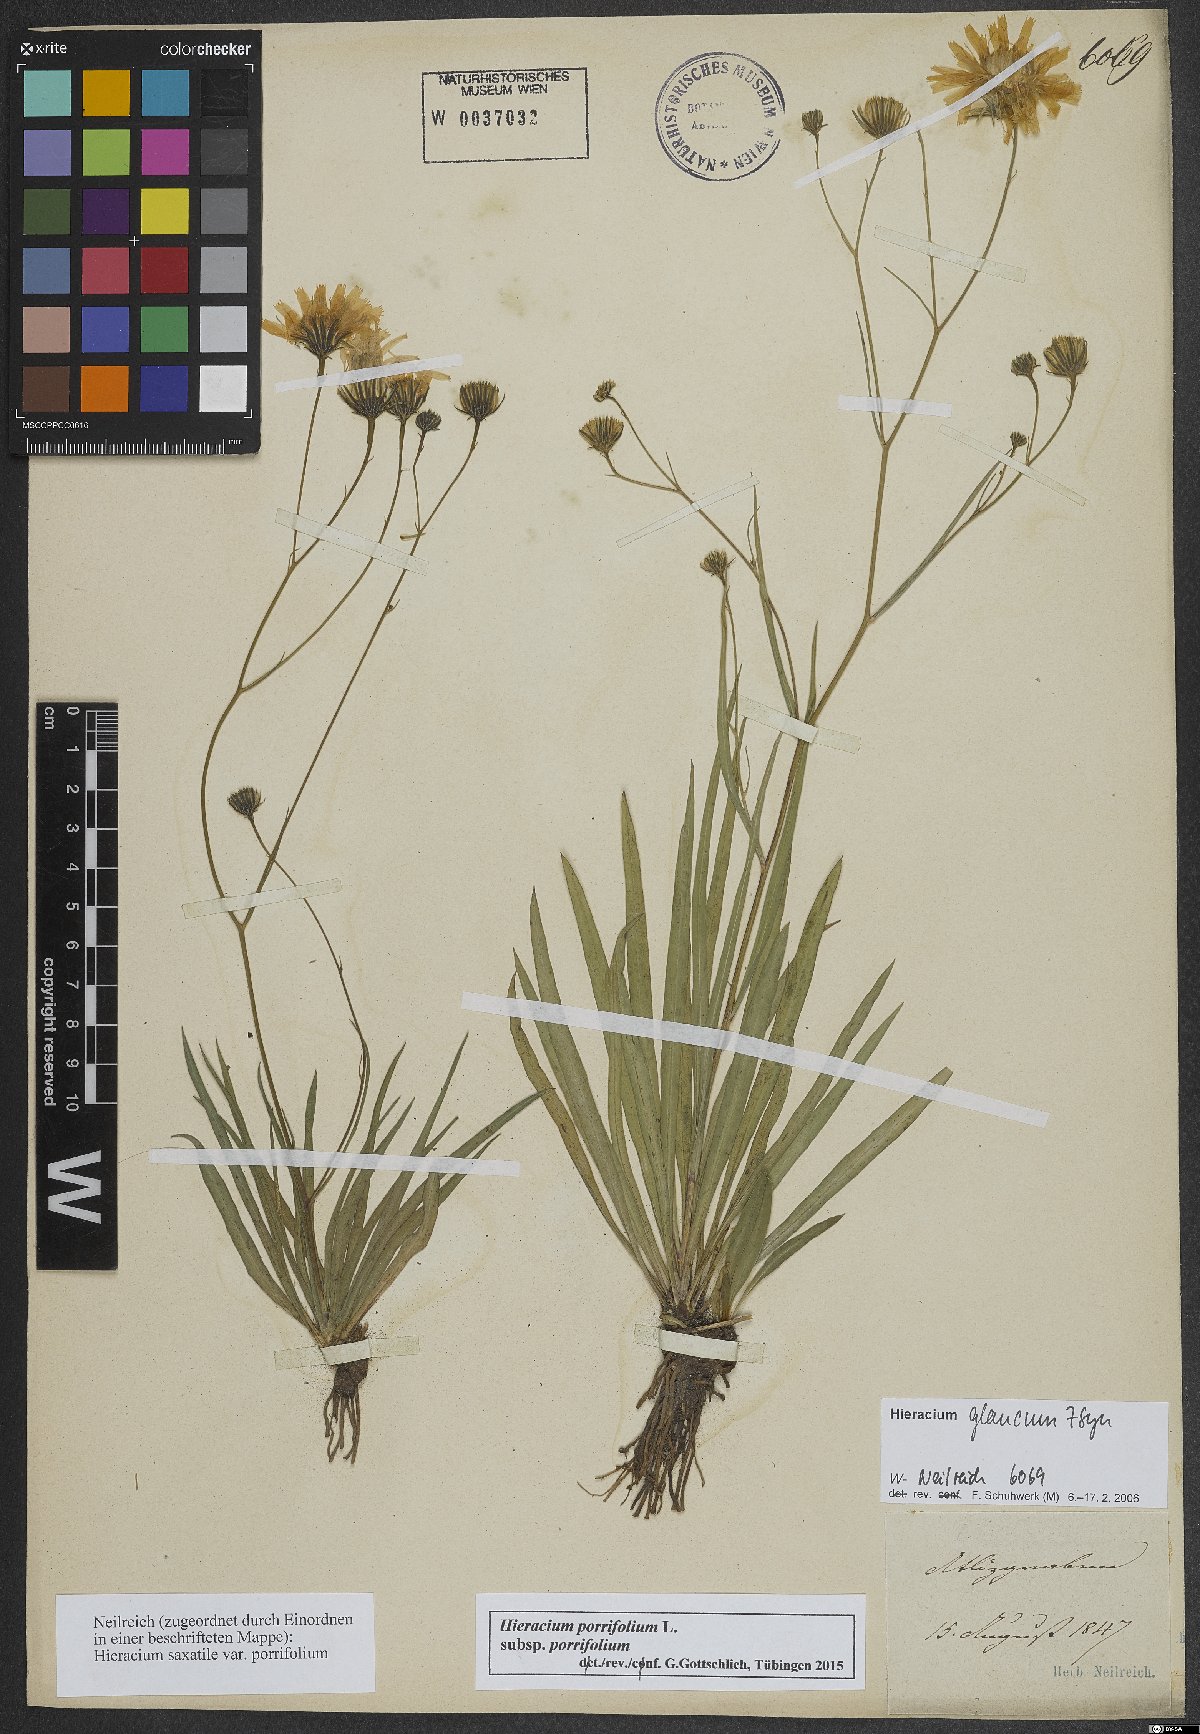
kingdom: Plantae
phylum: Tracheophyta
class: Magnoliopsida
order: Asterales
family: Asteraceae
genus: Hieracium
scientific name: Hieracium porrifolium
